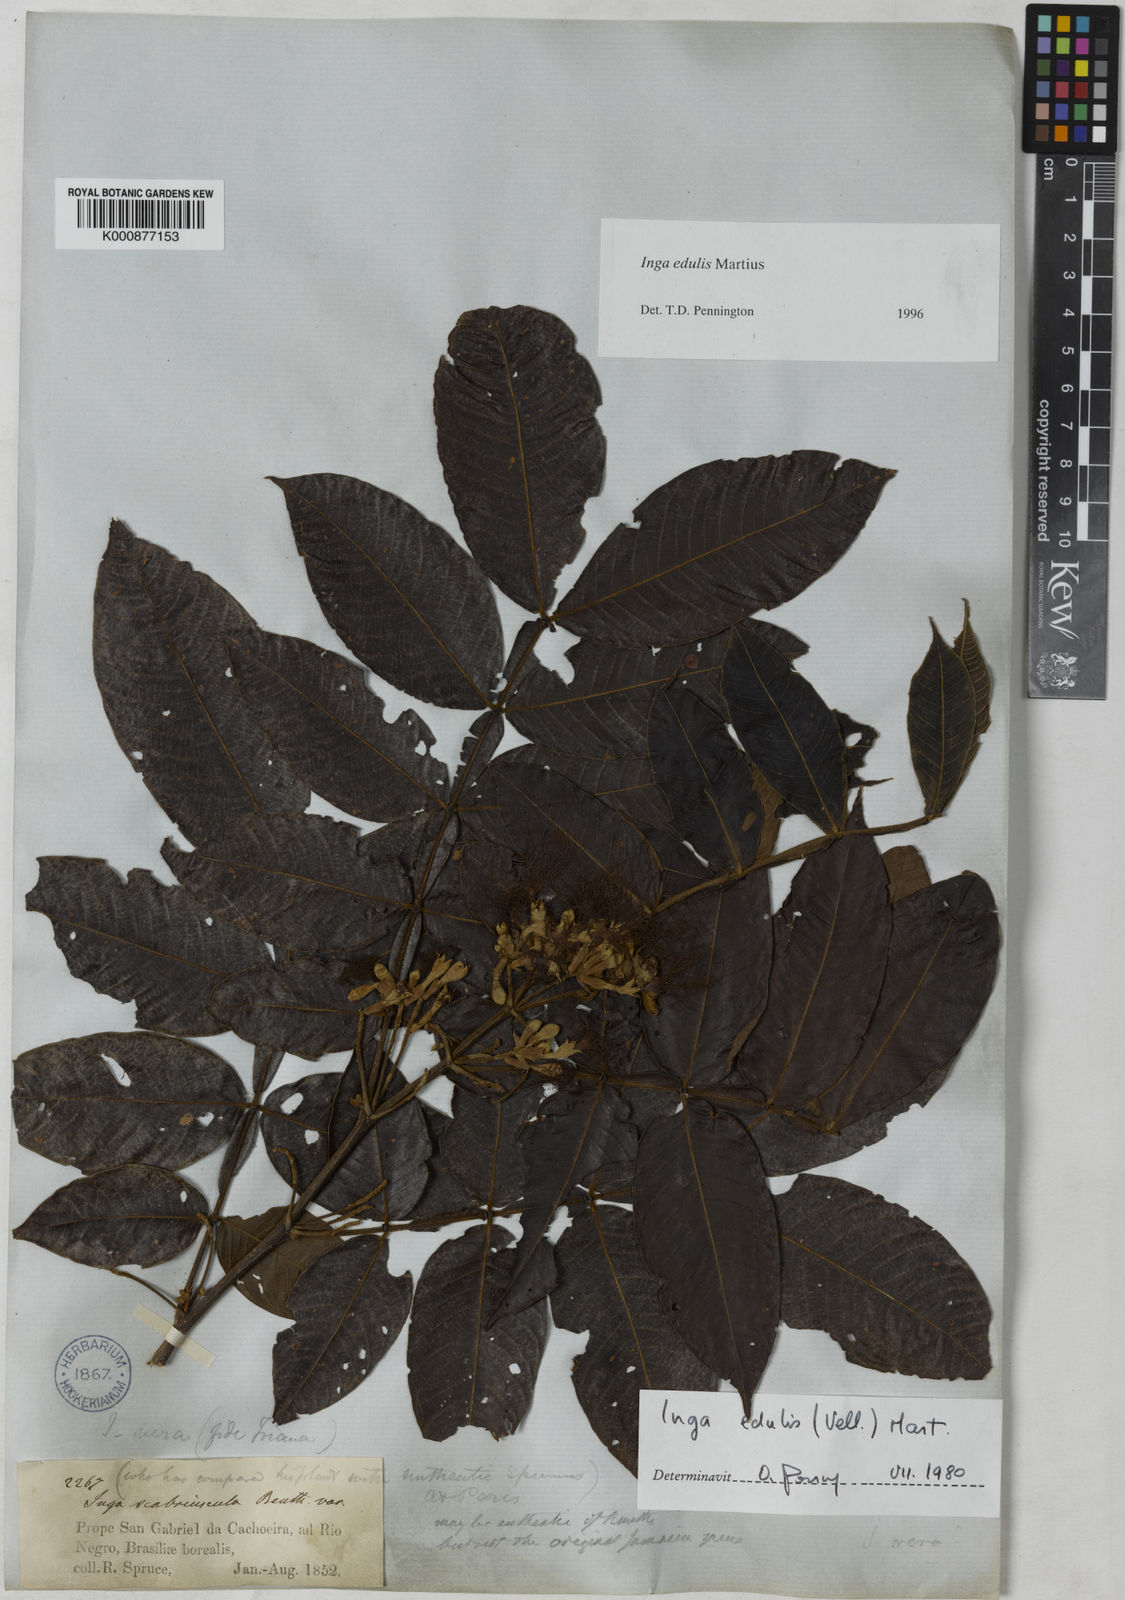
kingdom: Plantae
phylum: Tracheophyta
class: Magnoliopsida
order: Fabales
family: Fabaceae
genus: Inga
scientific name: Inga edulis
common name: Ice cream bean
